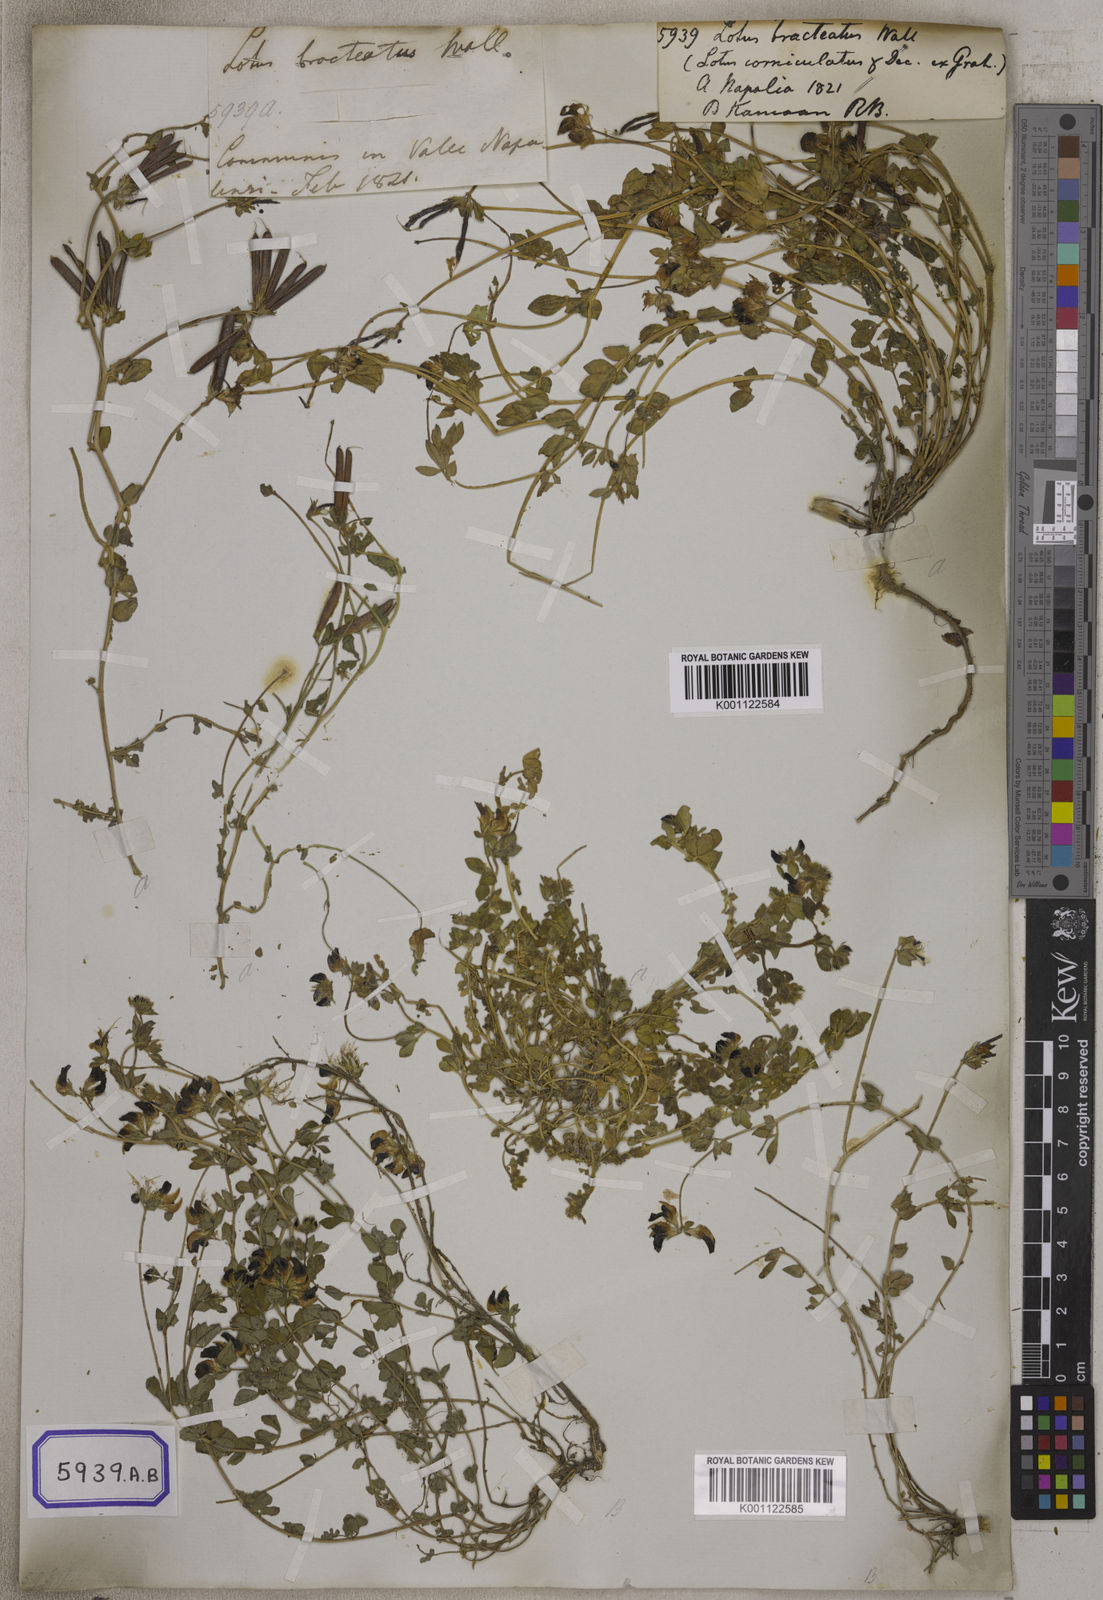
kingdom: Plantae
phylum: Tracheophyta
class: Magnoliopsida
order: Fabales
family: Fabaceae
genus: Lotus
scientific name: Lotus corniculatus
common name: Common bird's-foot-trefoil
